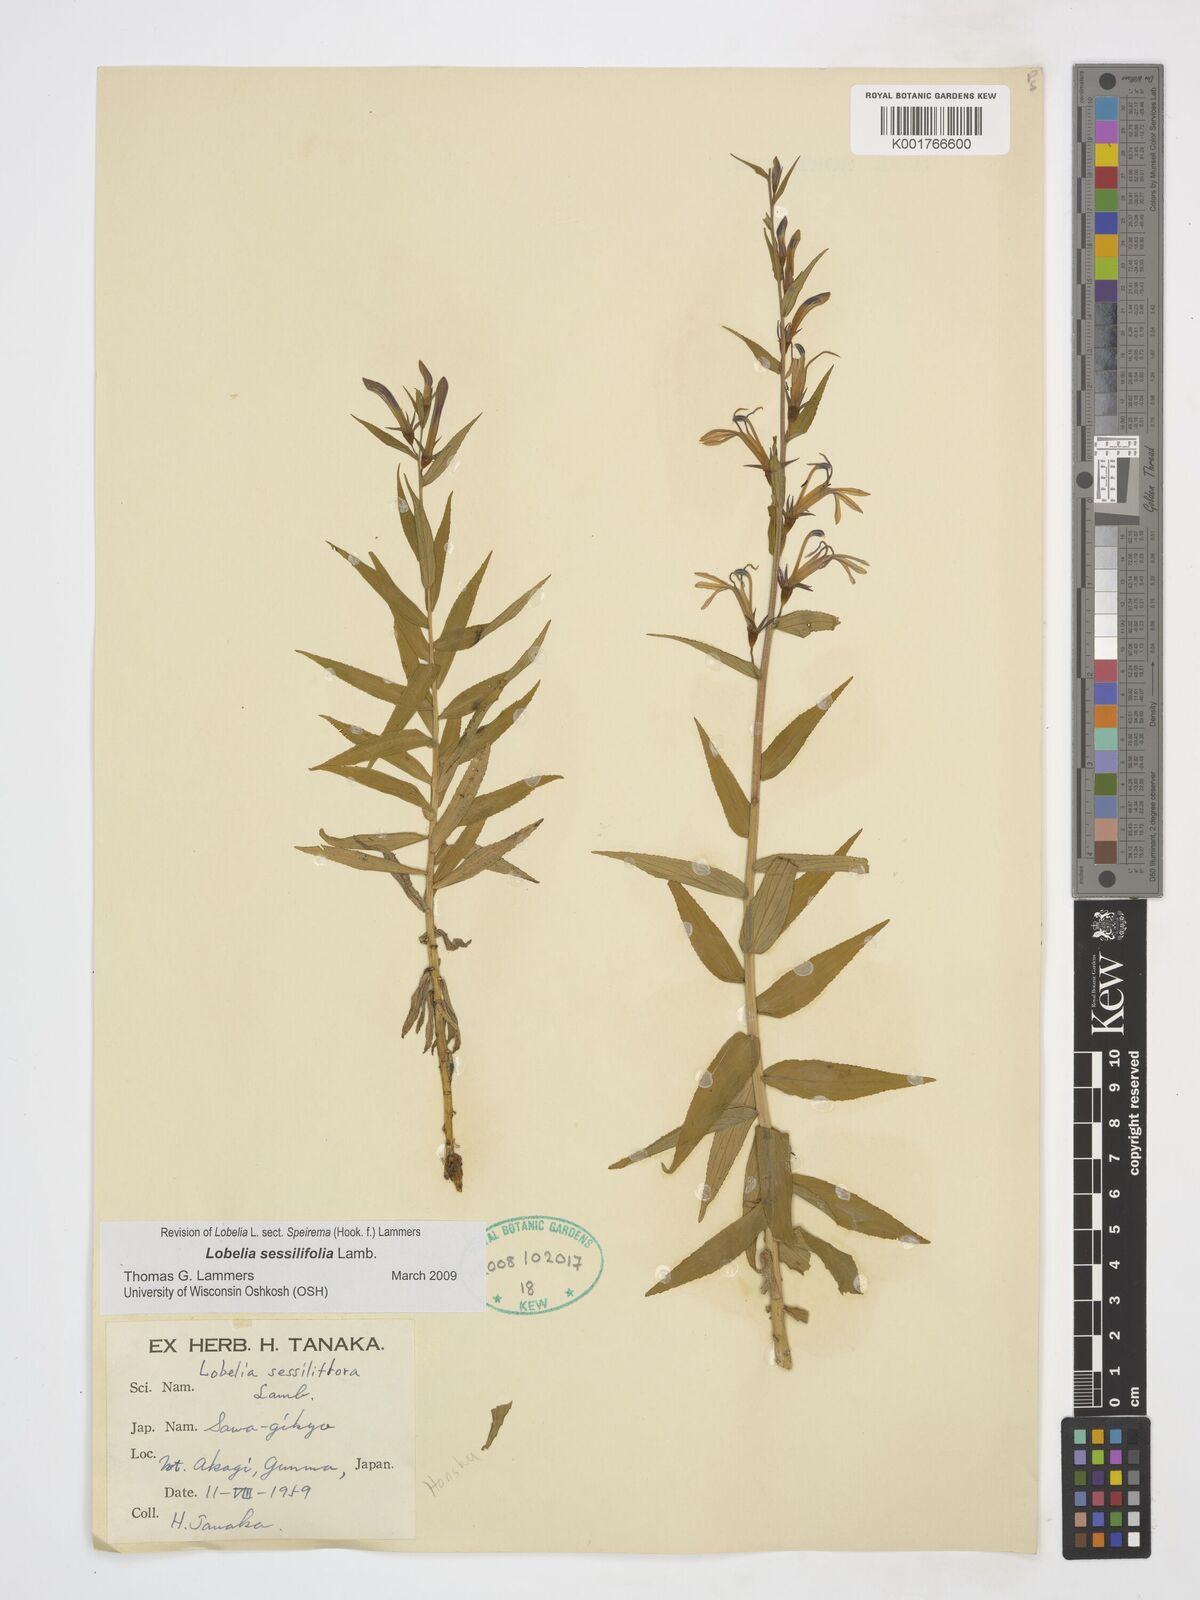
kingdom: Plantae
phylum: Tracheophyta
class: Magnoliopsida
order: Asterales
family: Campanulaceae
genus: Lobelia
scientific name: Lobelia sessilifolia
